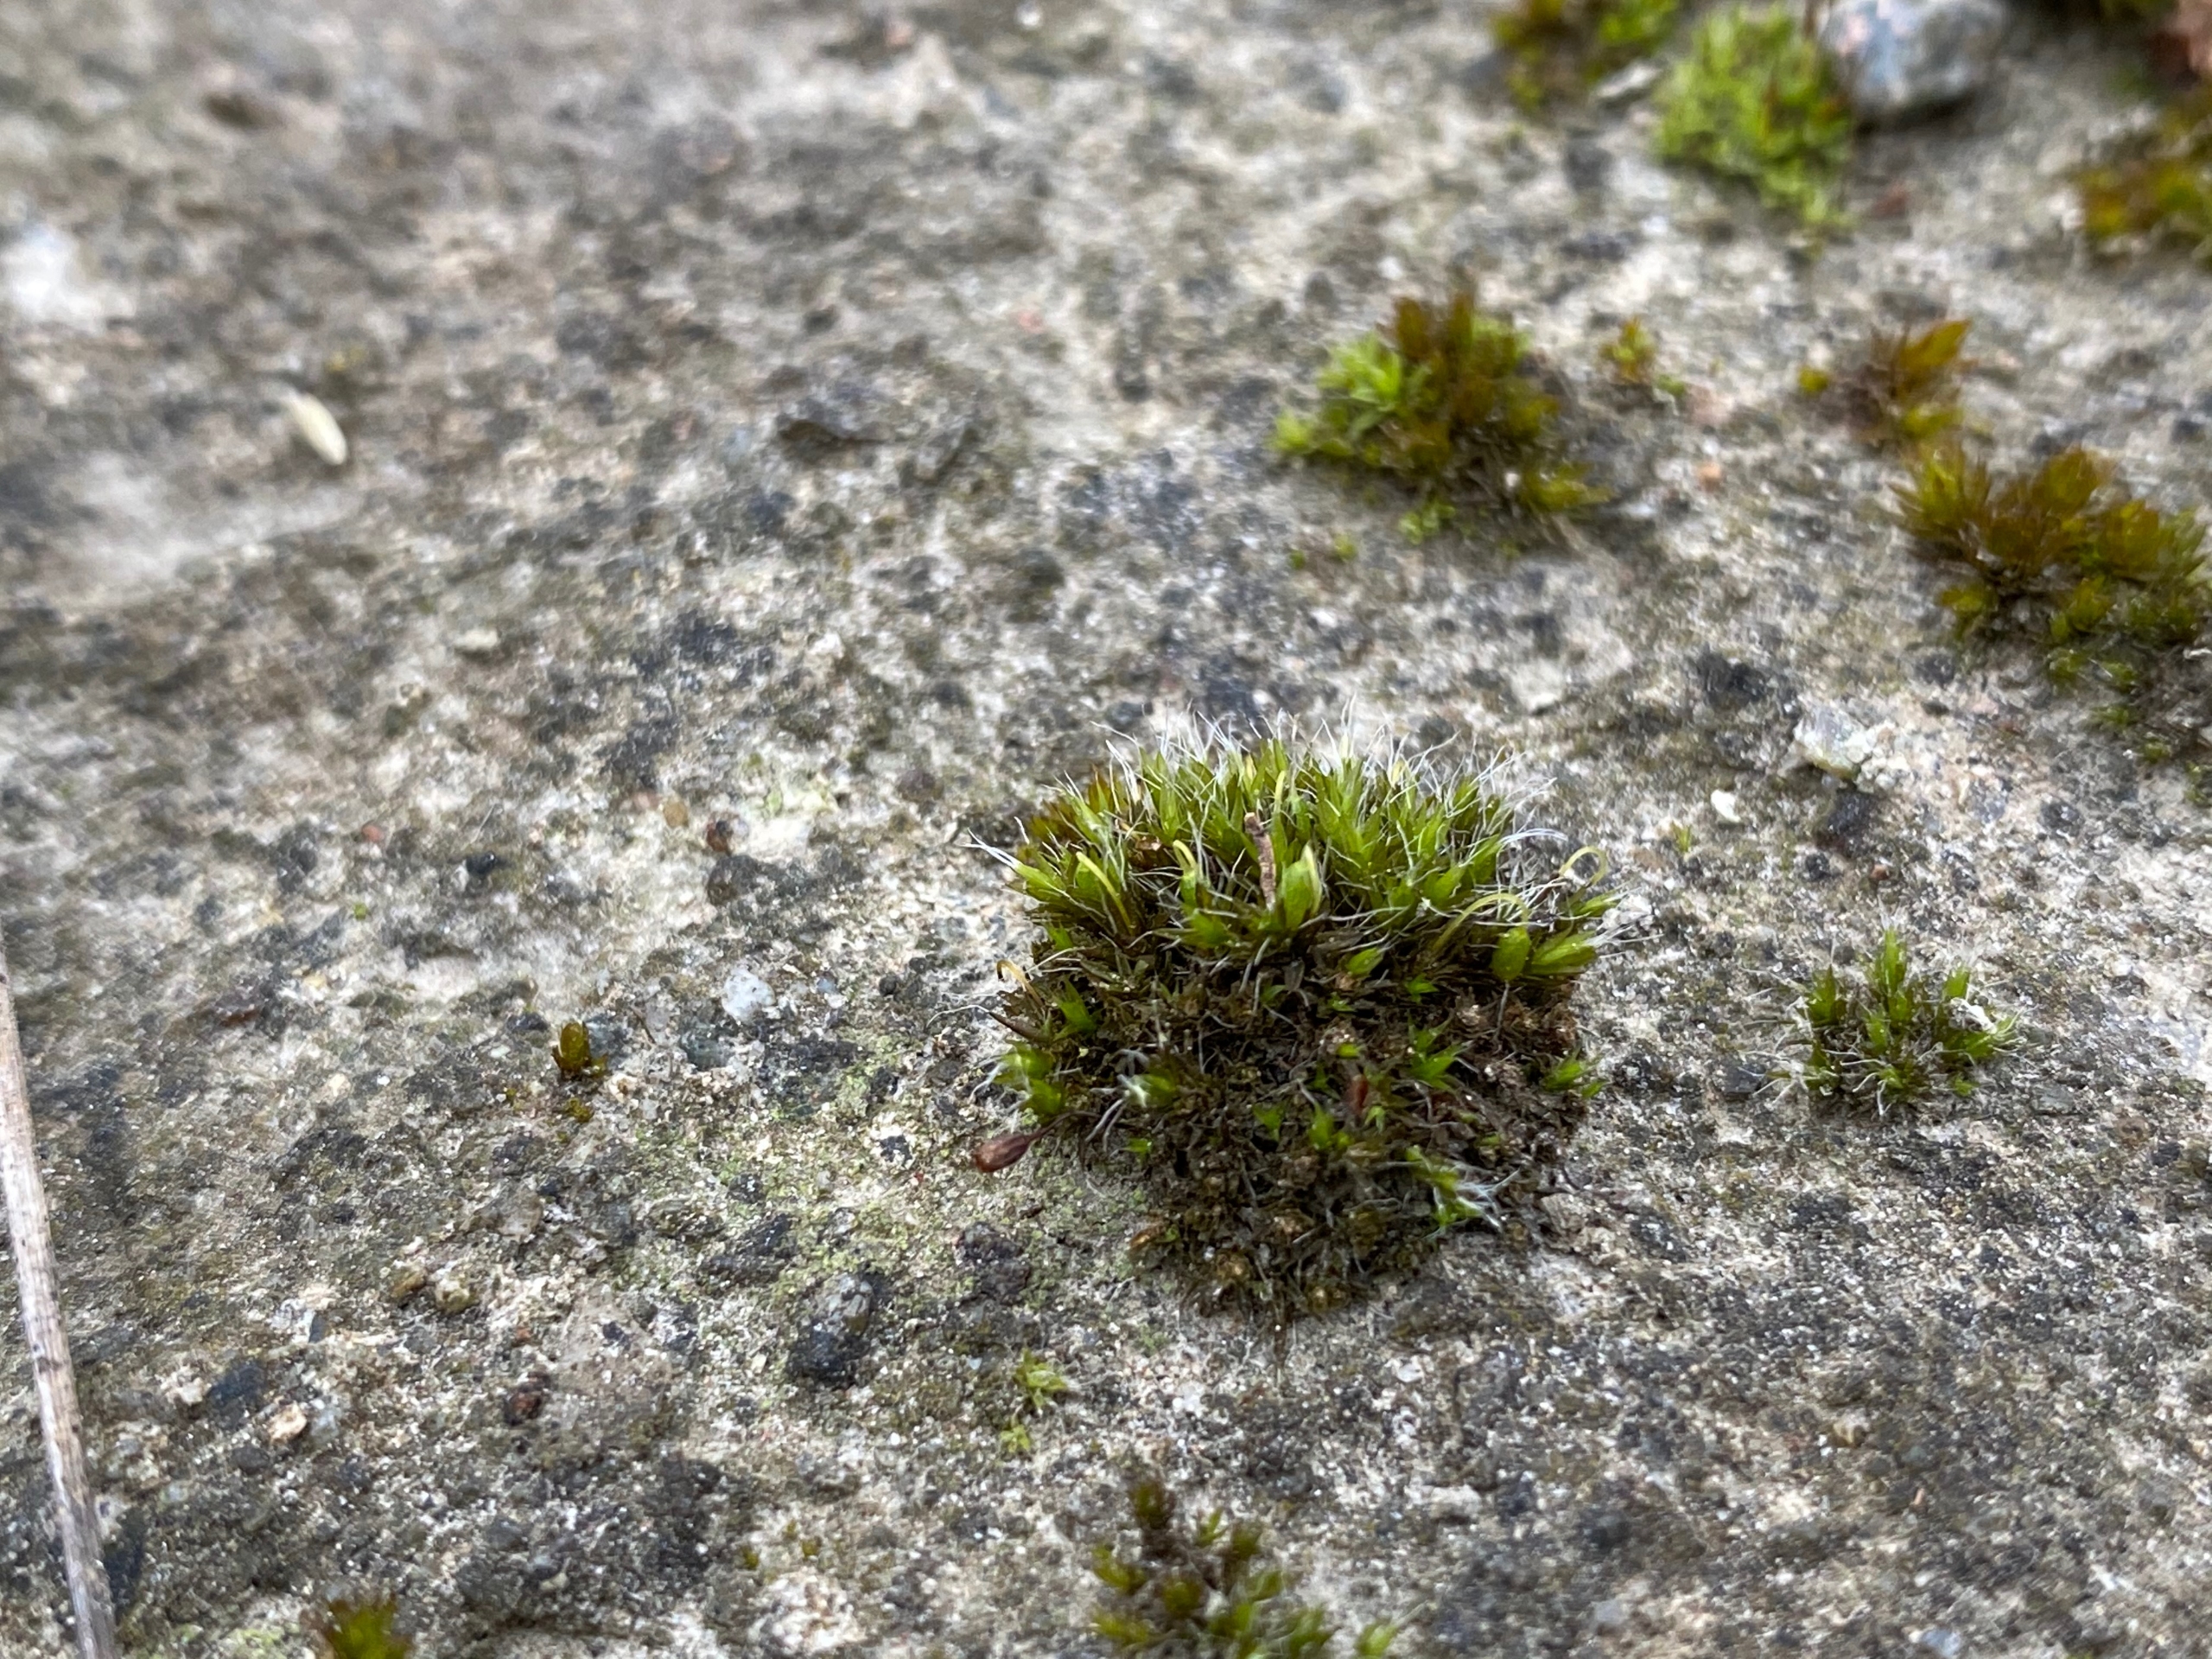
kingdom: Plantae
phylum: Bryophyta
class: Bryopsida
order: Grimmiales
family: Grimmiaceae
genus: Grimmia
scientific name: Grimmia pulvinata
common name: Pude-gråmos
